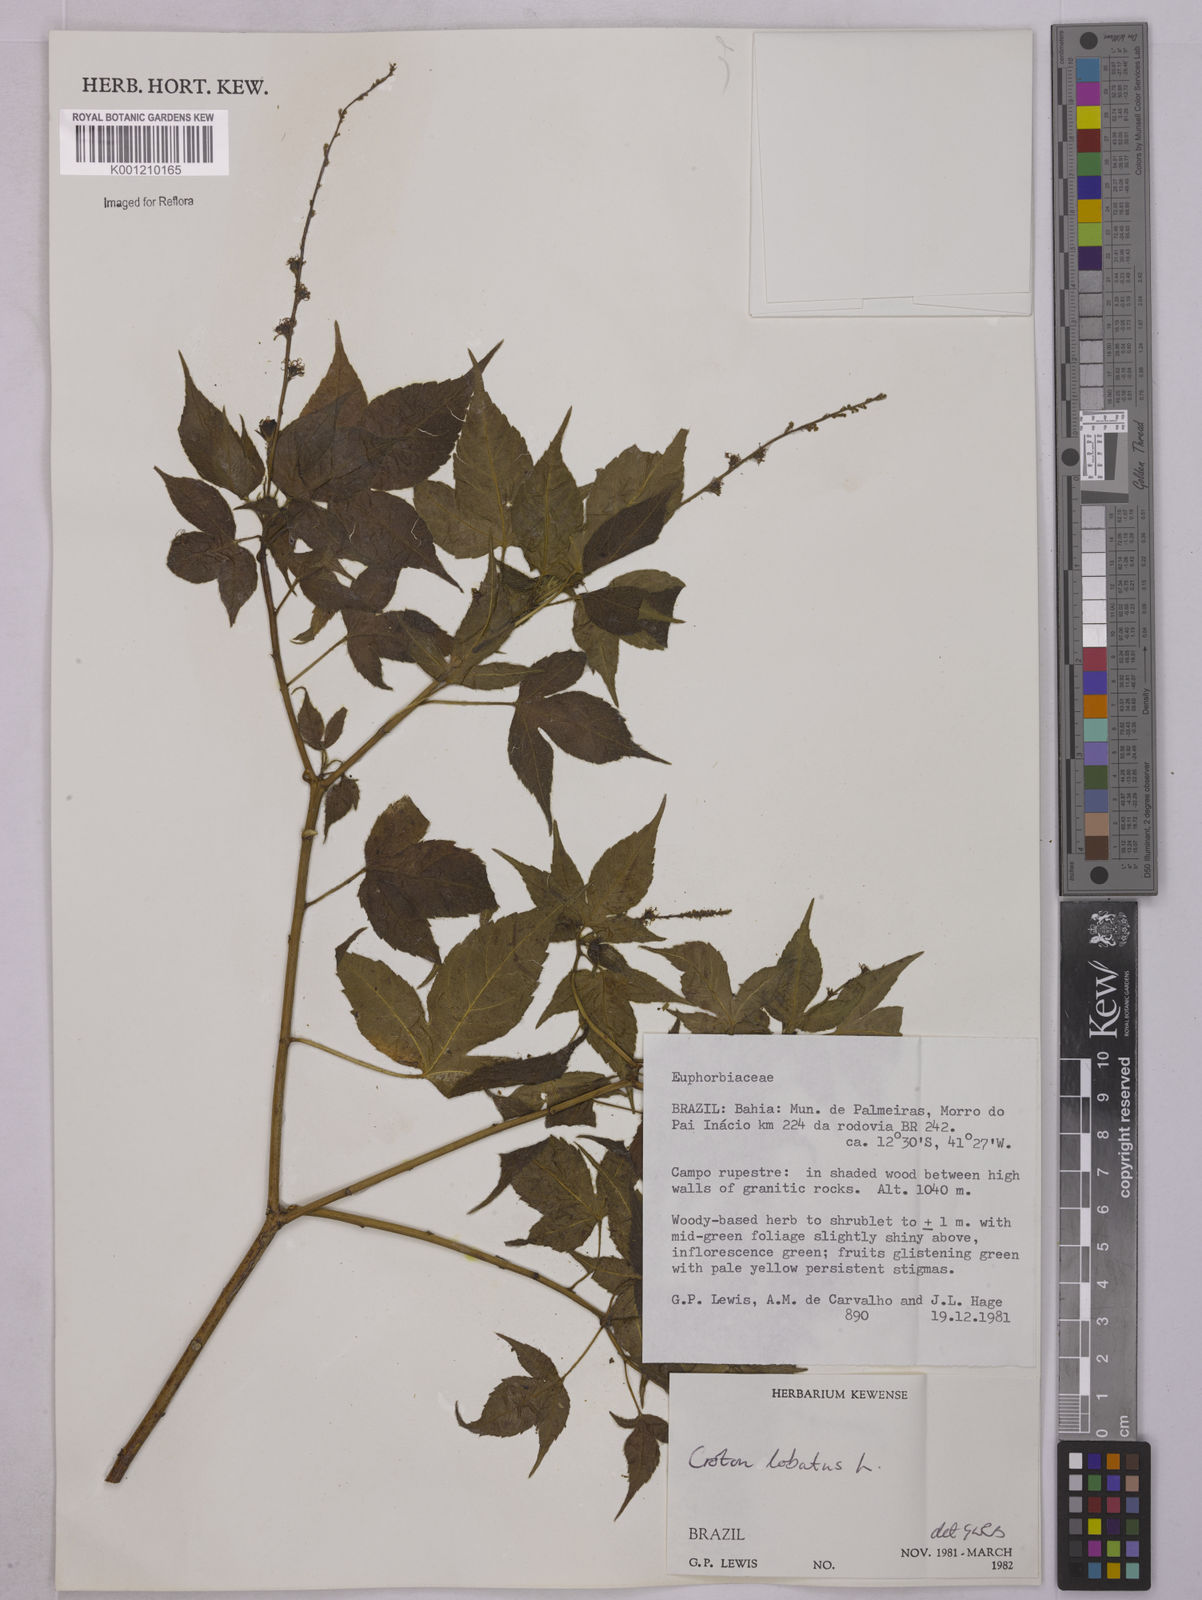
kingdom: Plantae
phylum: Tracheophyta
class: Magnoliopsida
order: Malpighiales
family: Euphorbiaceae
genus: Astraea
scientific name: Astraea lobata
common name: Lobed croton
